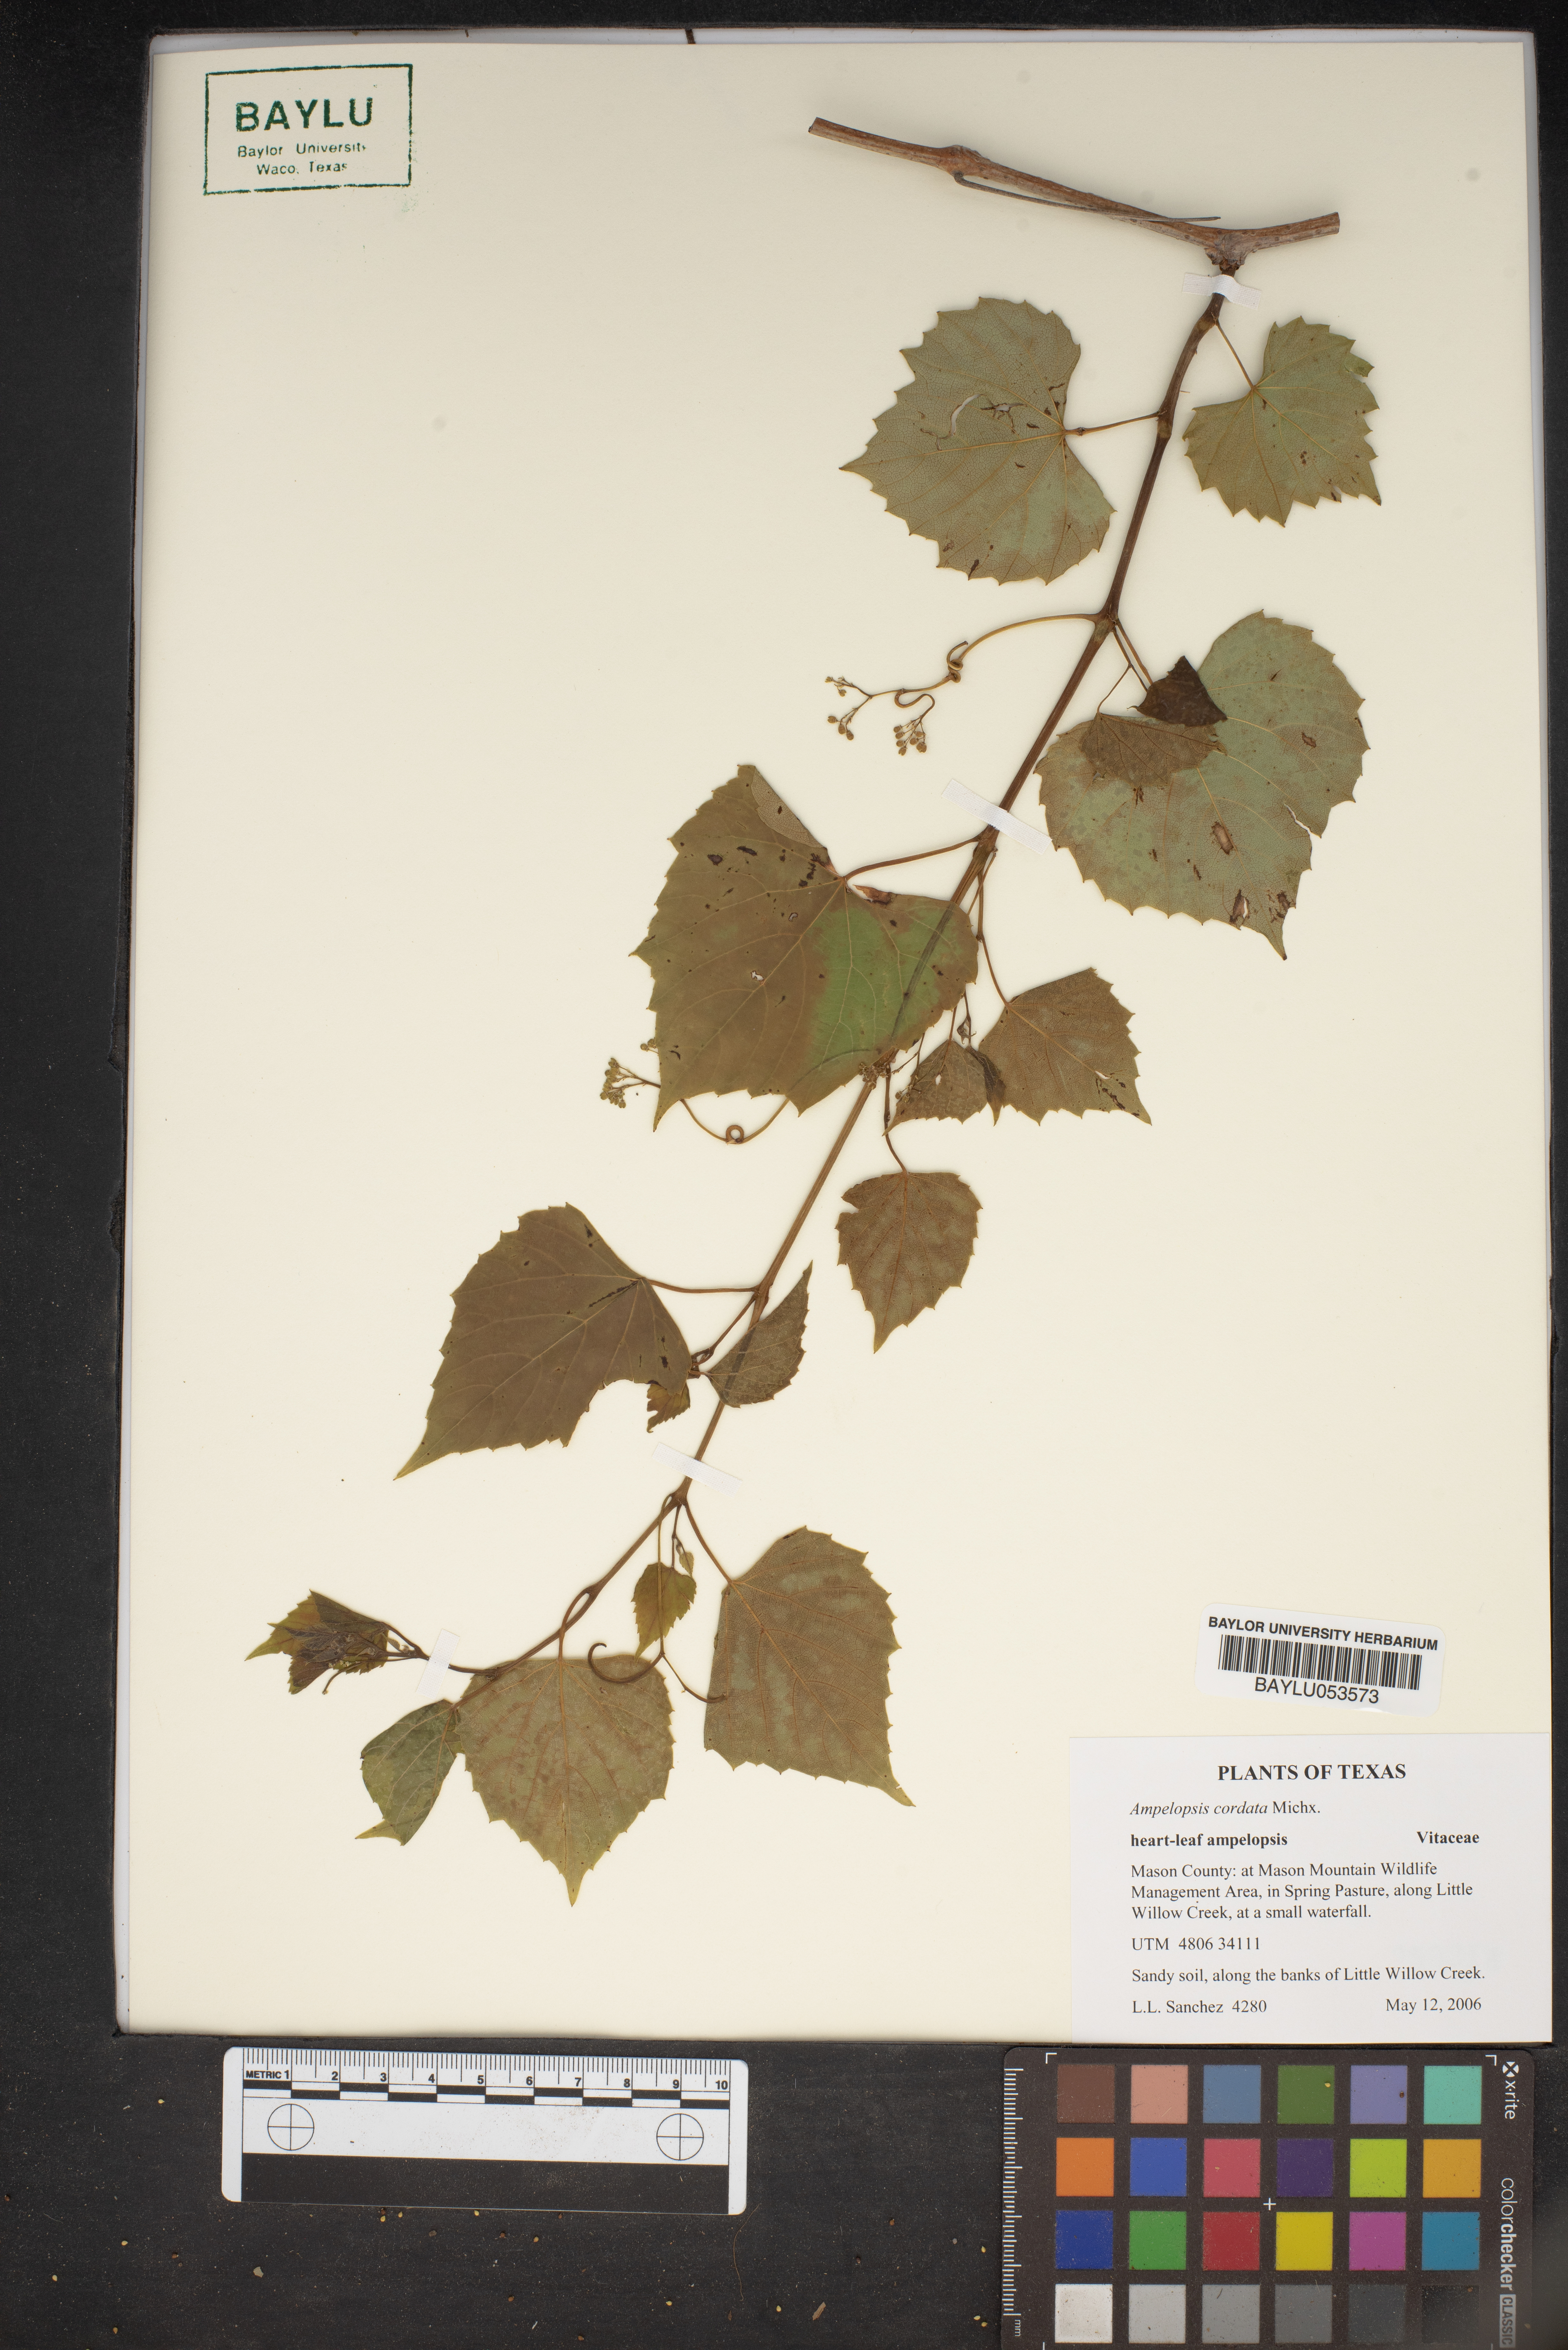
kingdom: Plantae
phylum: Tracheophyta
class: Magnoliopsida
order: Vitales
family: Vitaceae
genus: Ampelopsis
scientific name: Ampelopsis cordata
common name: Heart-leaf ampelopsis
